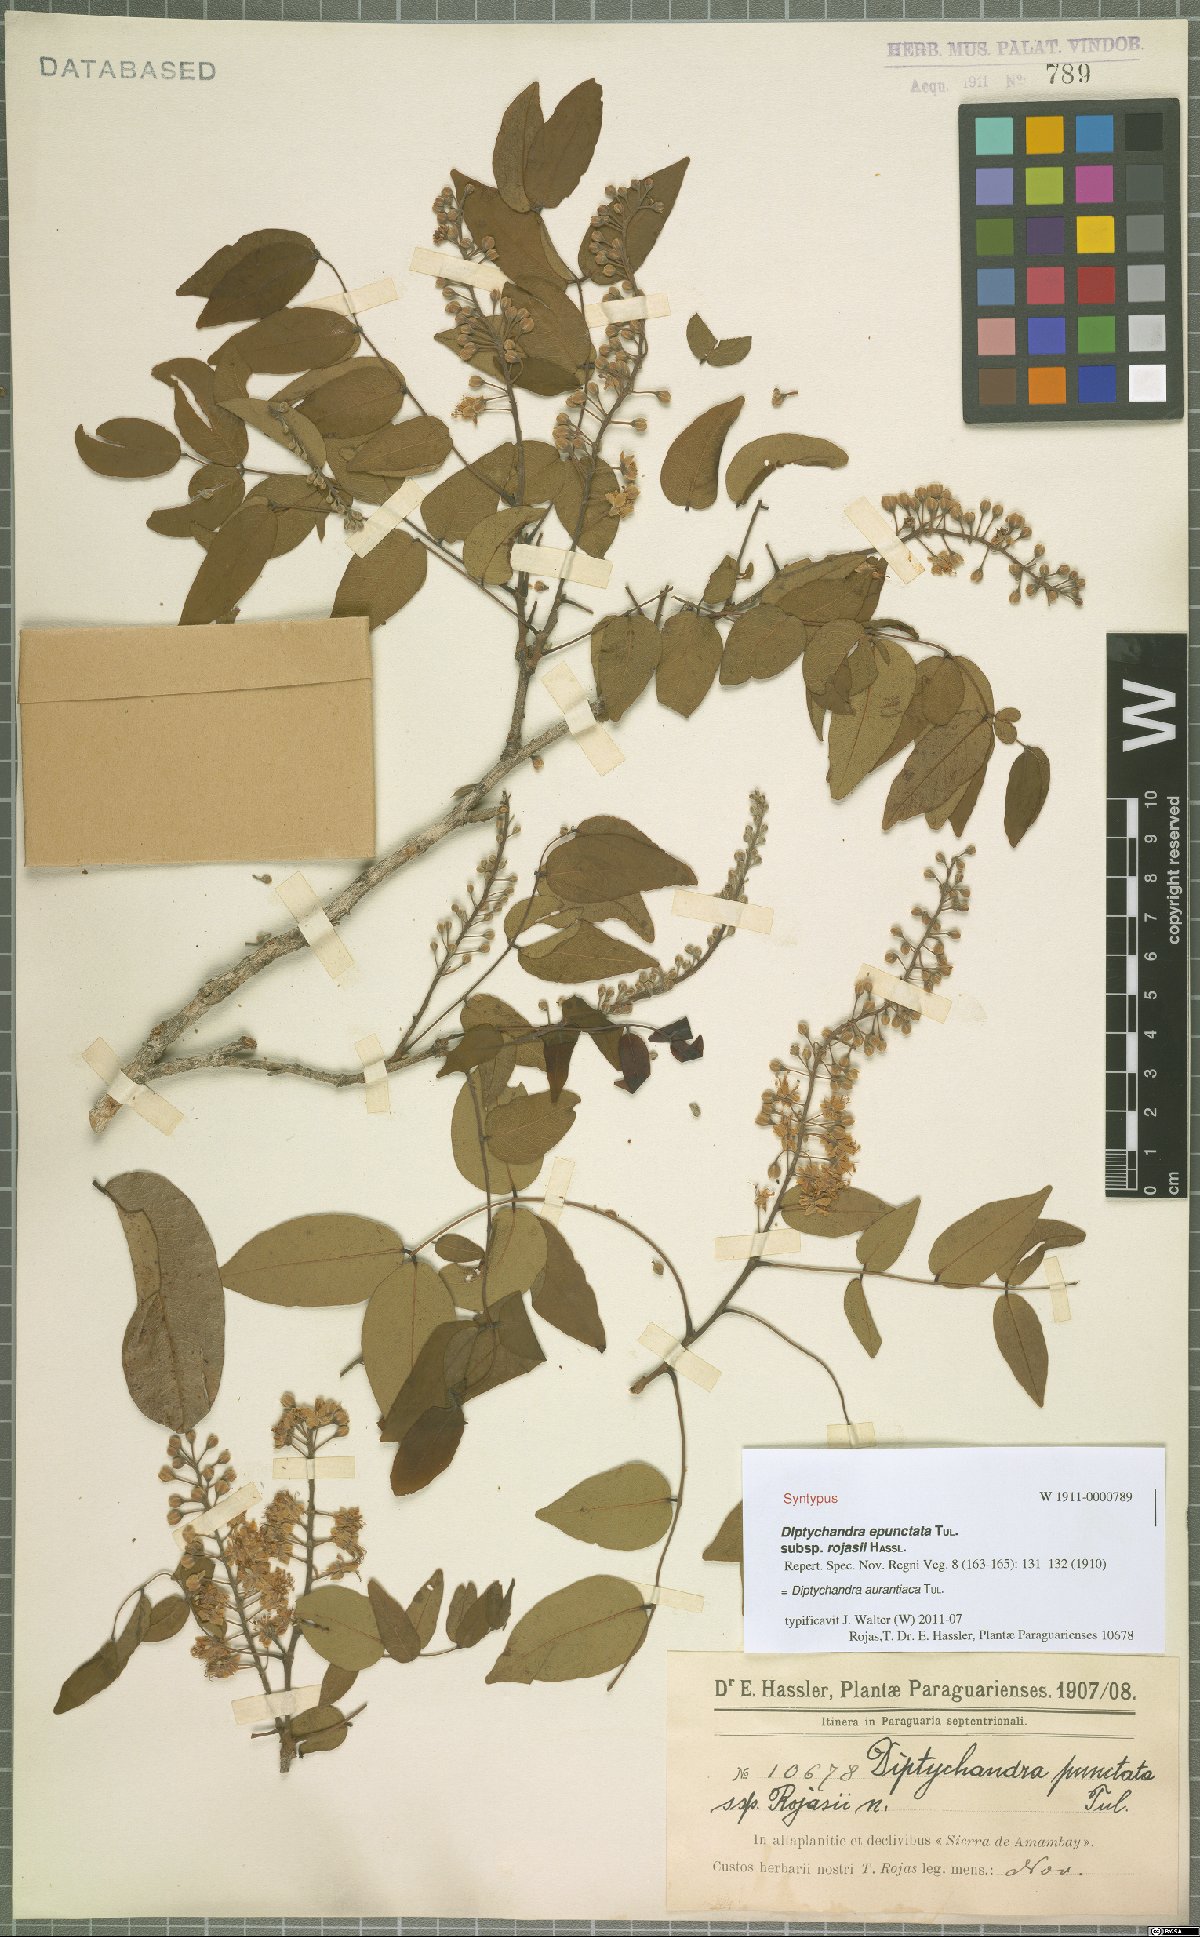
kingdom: Plantae
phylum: Tracheophyta
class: Magnoliopsida
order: Fabales
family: Fabaceae
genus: Diptychandra
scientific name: Diptychandra aurantiaca
